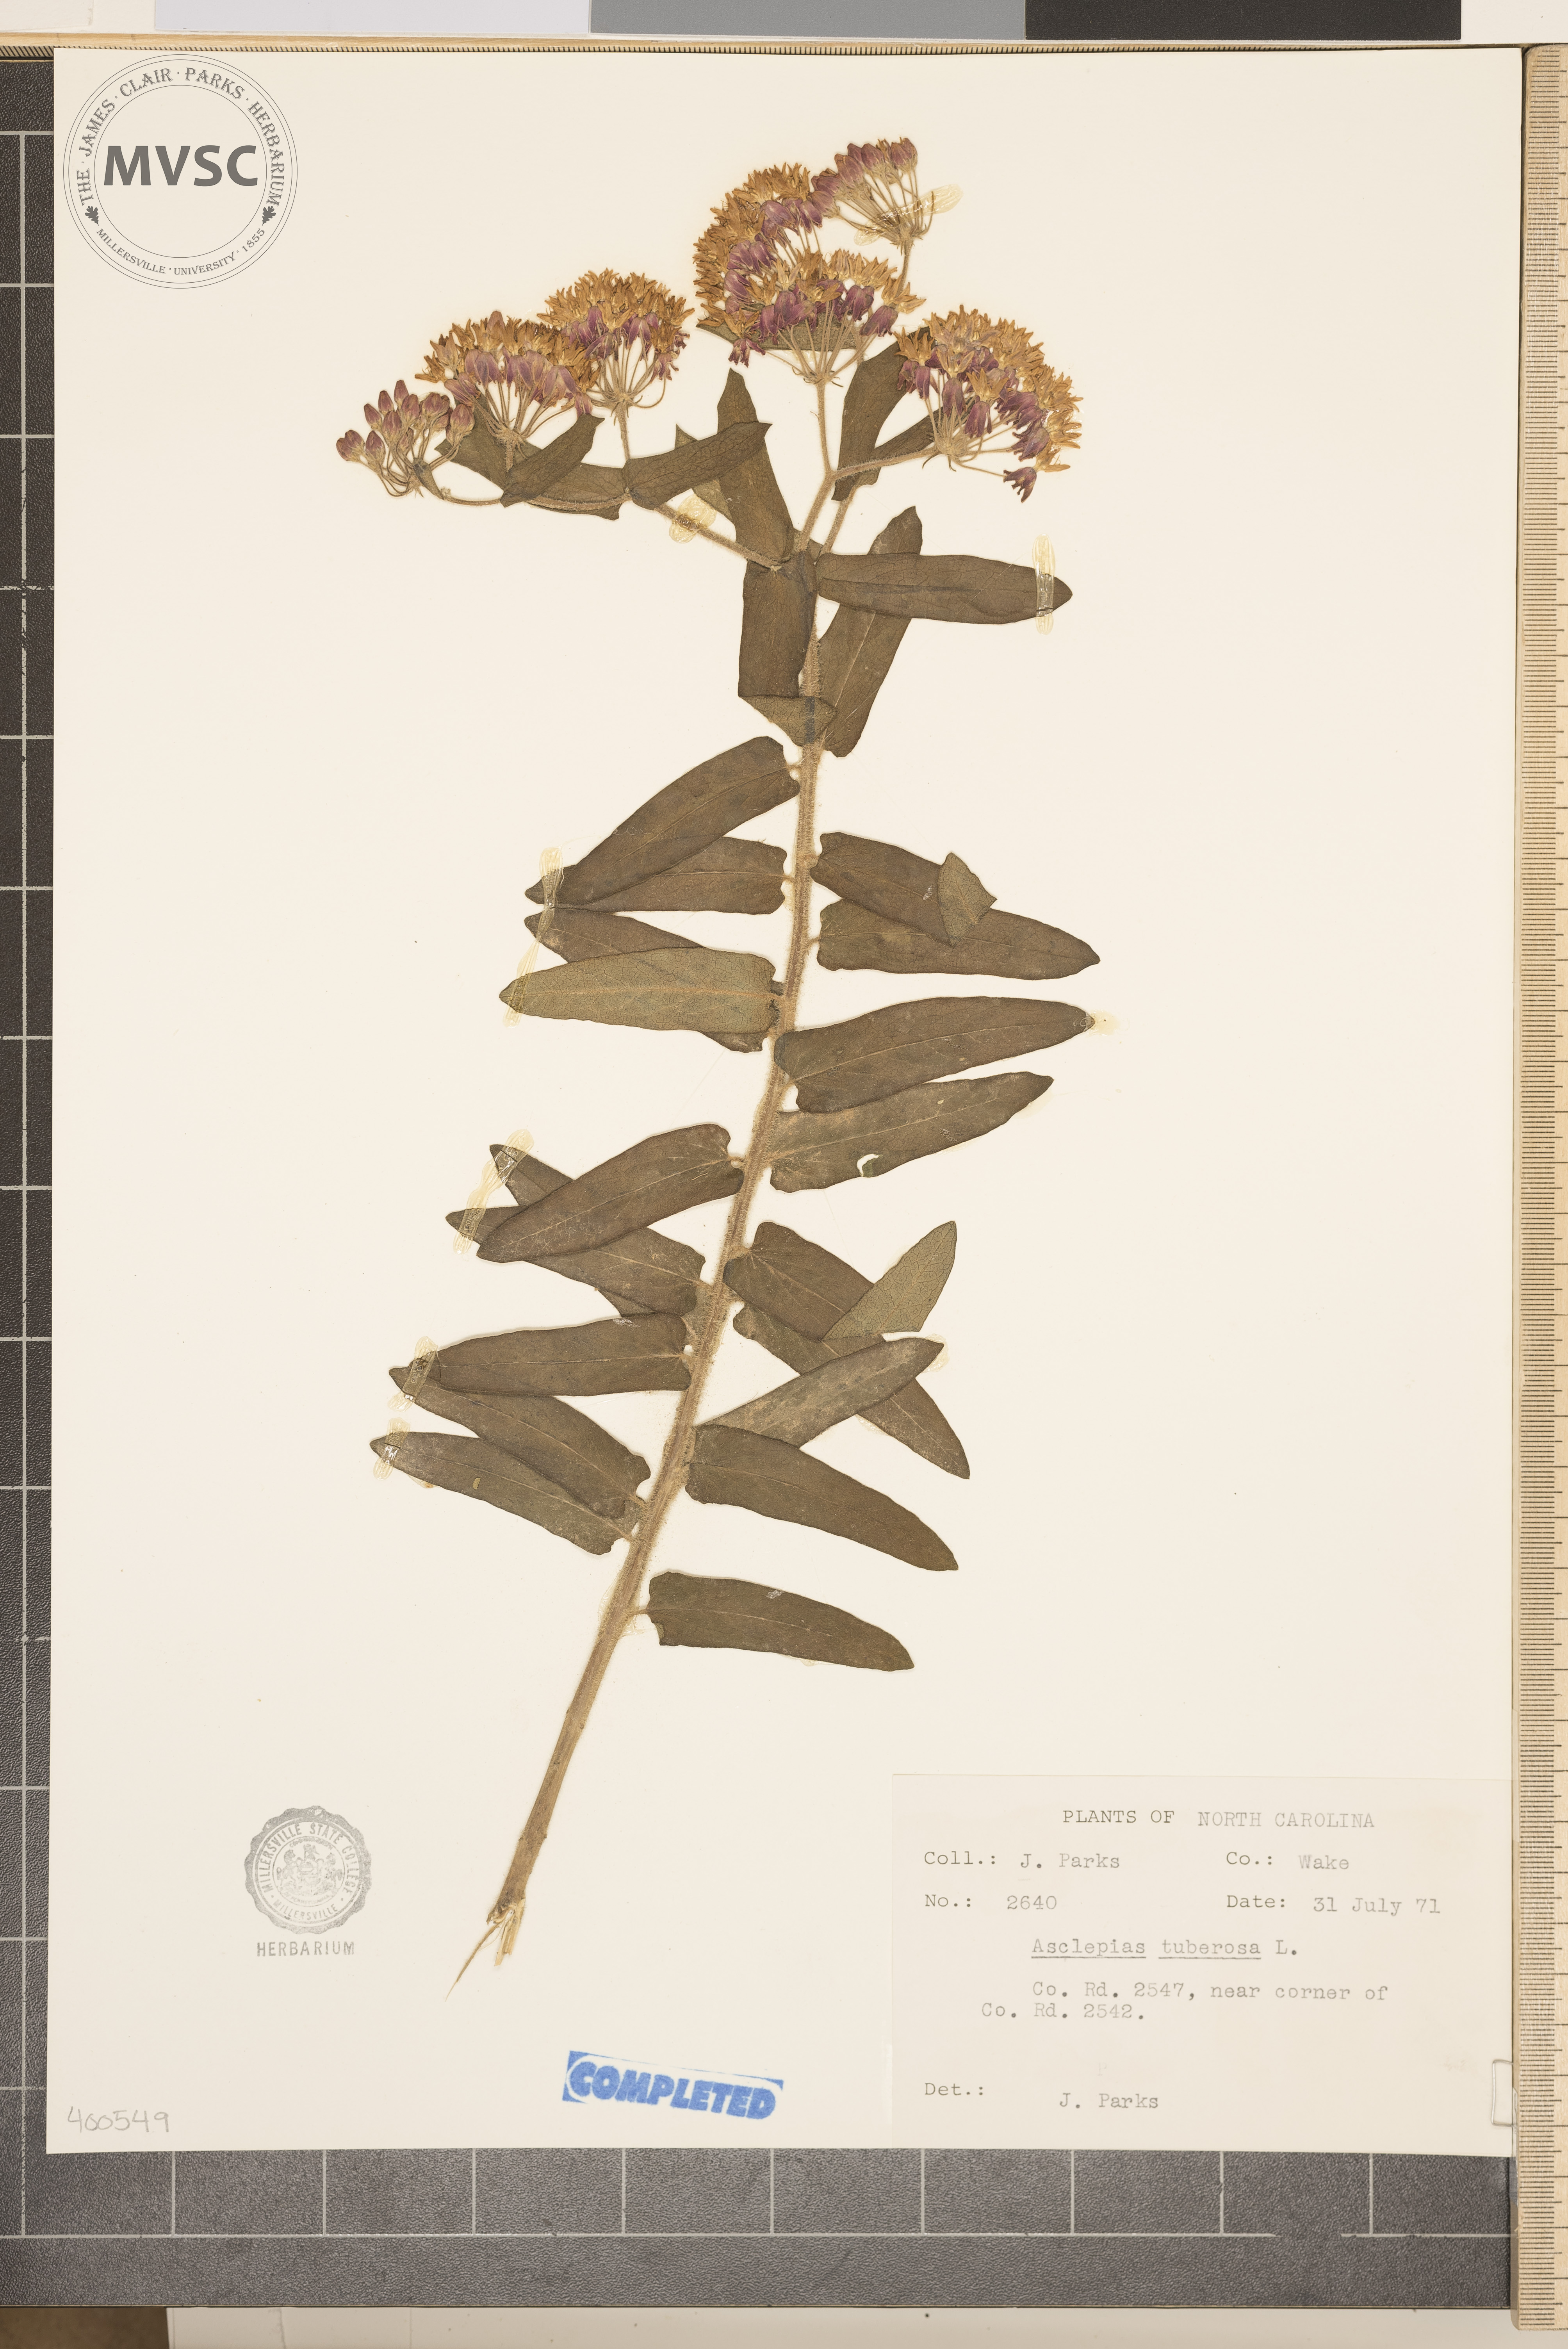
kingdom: Plantae
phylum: Tracheophyta
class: Magnoliopsida
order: Gentianales
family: Apocynaceae
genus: Asclepias
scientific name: Asclepias tuberosa
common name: milkweed
